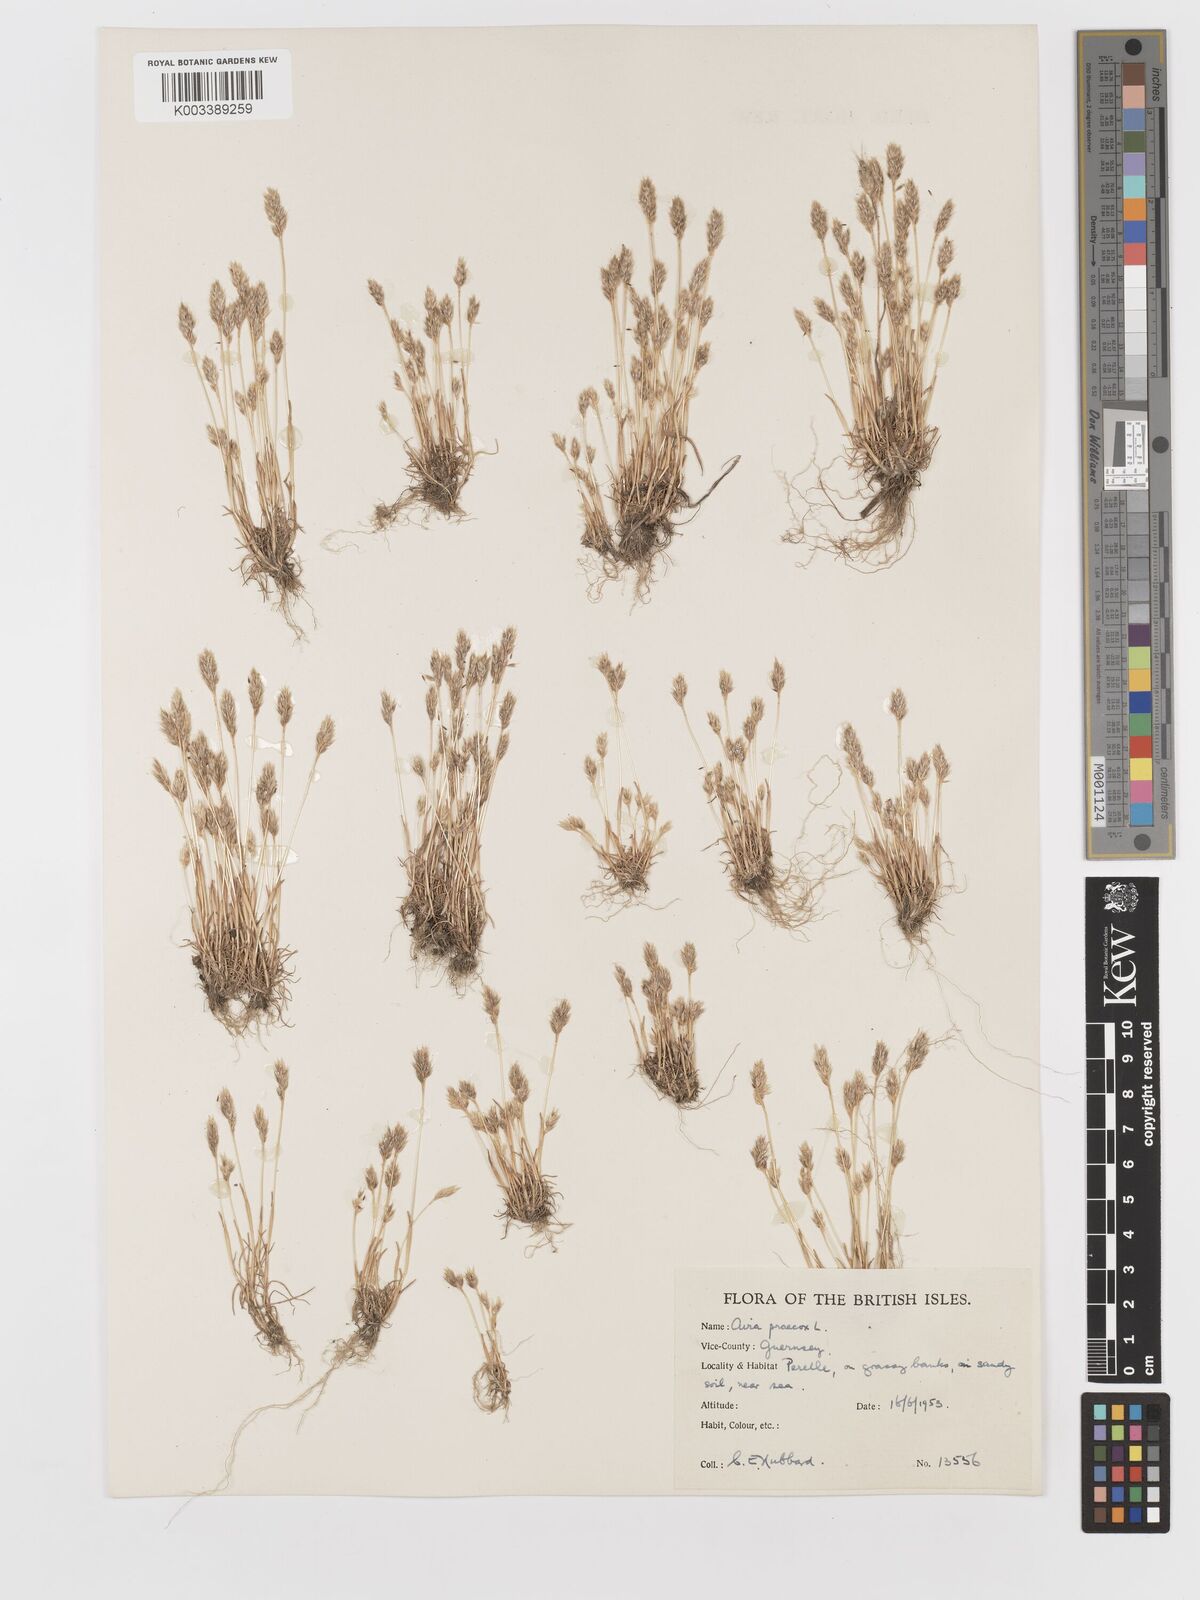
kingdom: Plantae
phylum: Tracheophyta
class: Liliopsida
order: Poales
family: Poaceae
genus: Aira
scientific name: Aira praecox
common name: Early hair-grass
